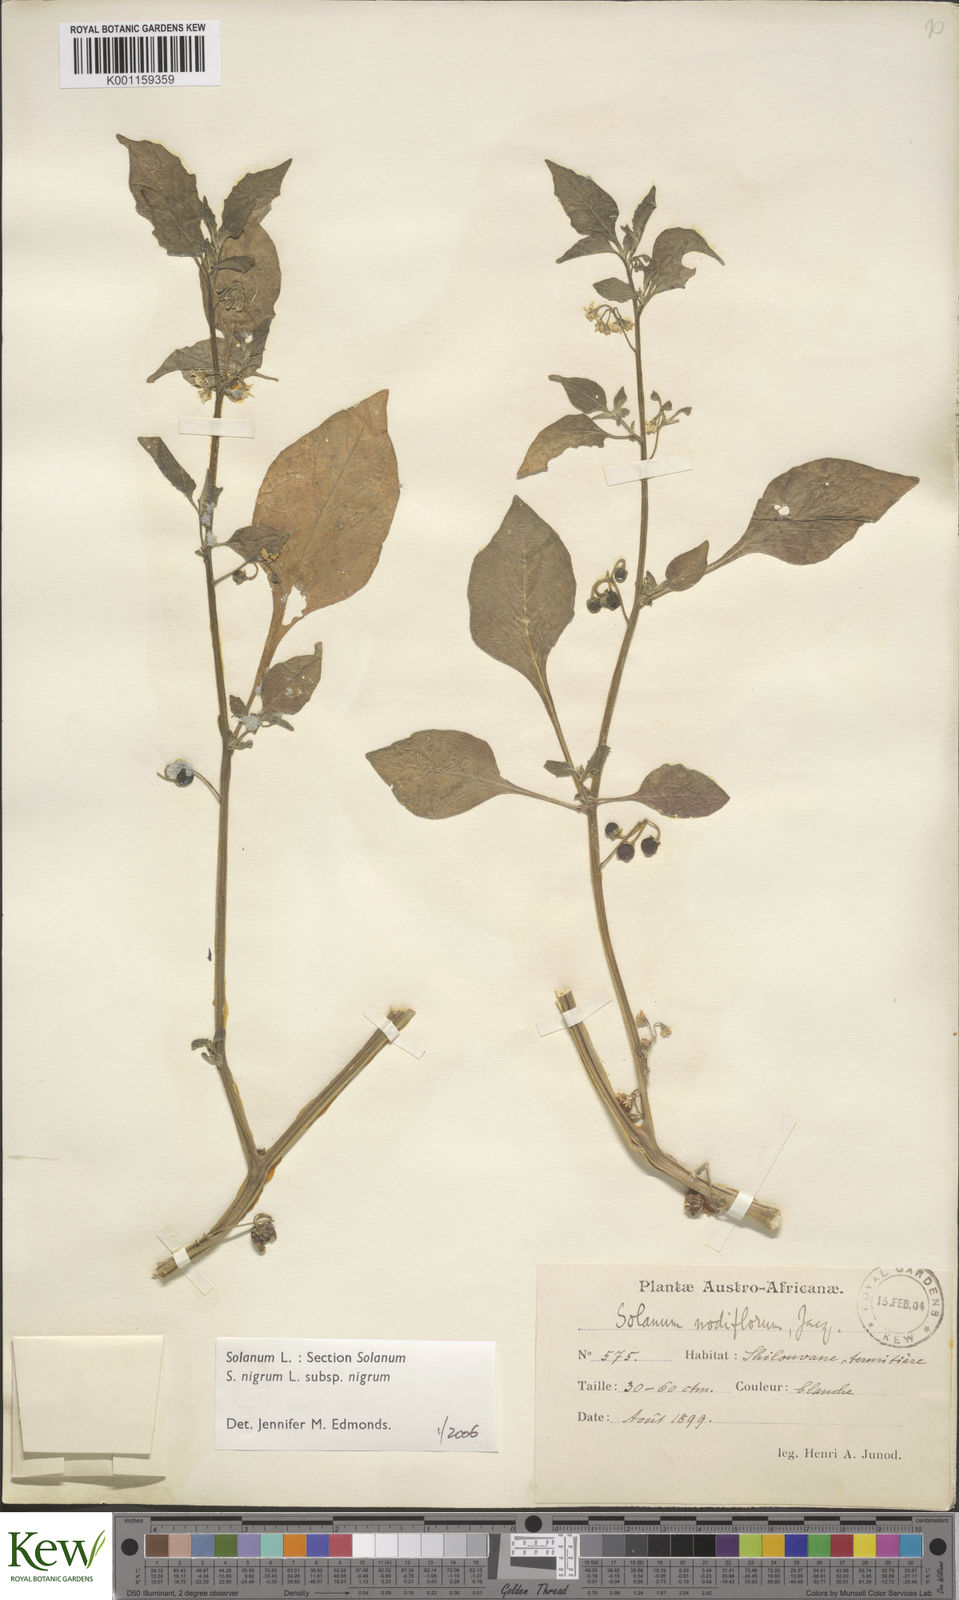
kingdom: Plantae
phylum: Tracheophyta
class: Magnoliopsida
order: Solanales
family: Solanaceae
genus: Solanum
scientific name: Solanum scabrum
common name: Garden-huckleberry
